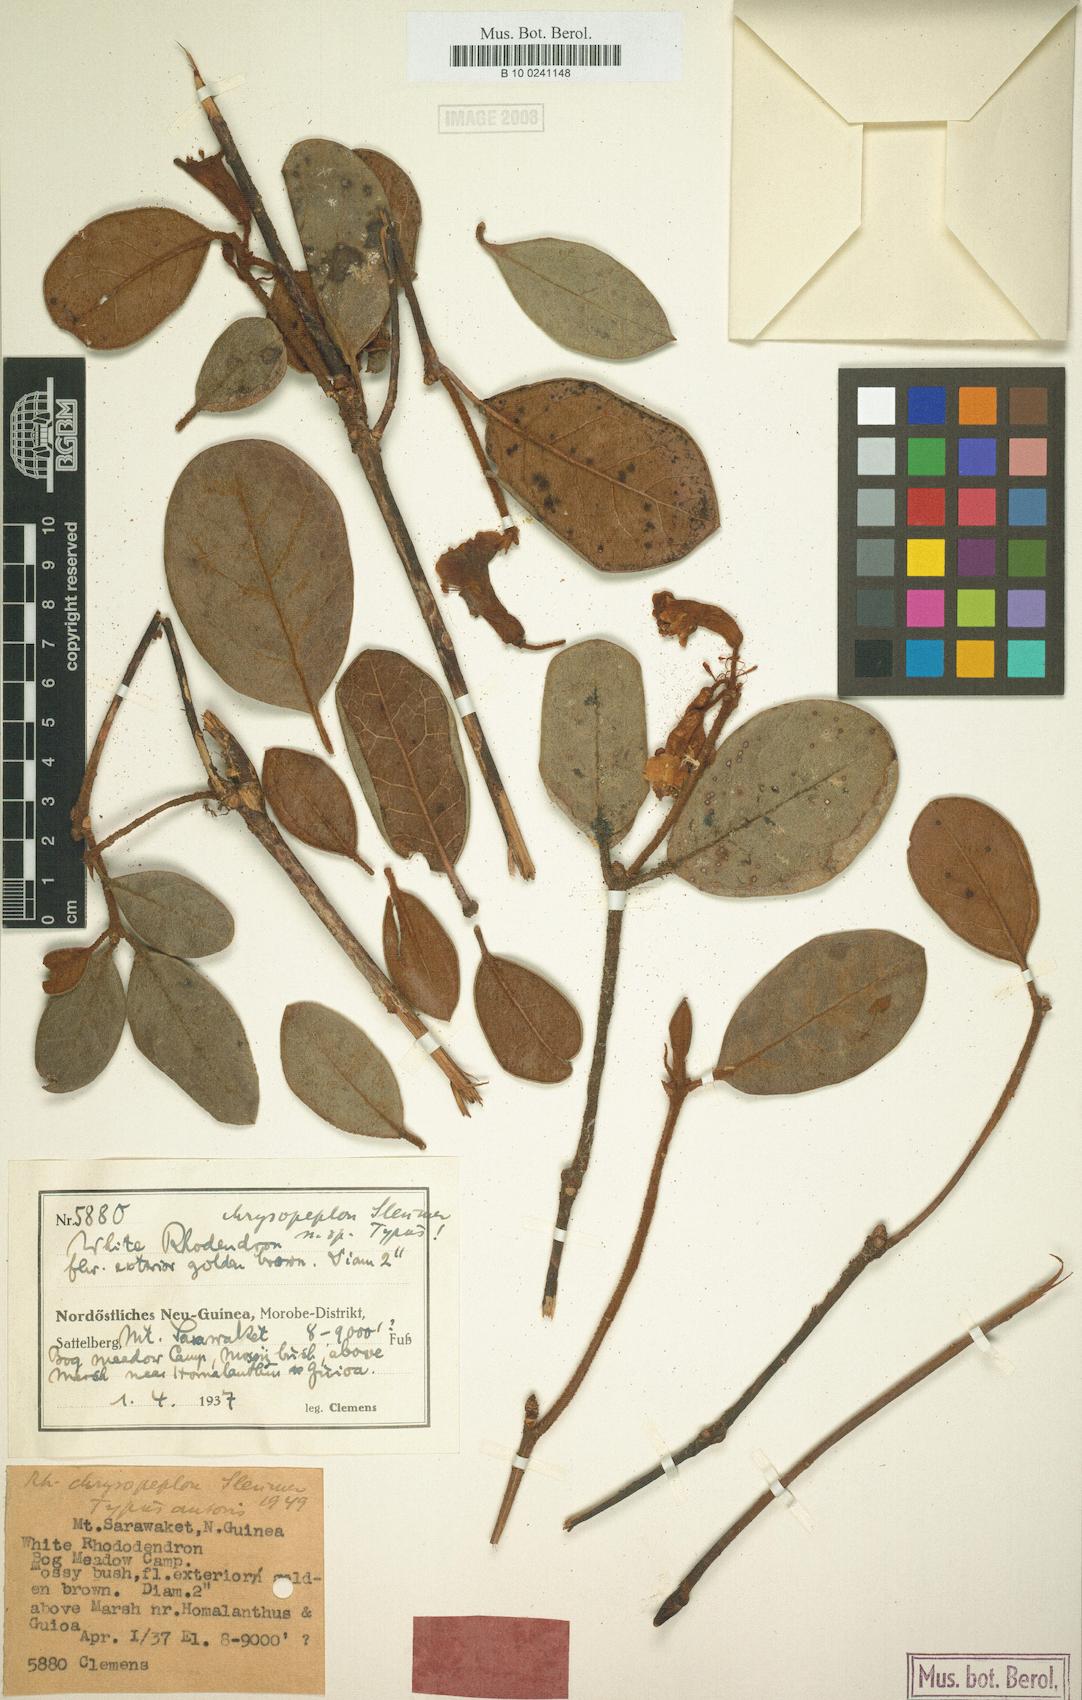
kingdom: Plantae
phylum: Tracheophyta
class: Magnoliopsida
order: Ericales
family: Ericaceae
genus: Rhododendron
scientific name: Rhododendron beyerinckianum
